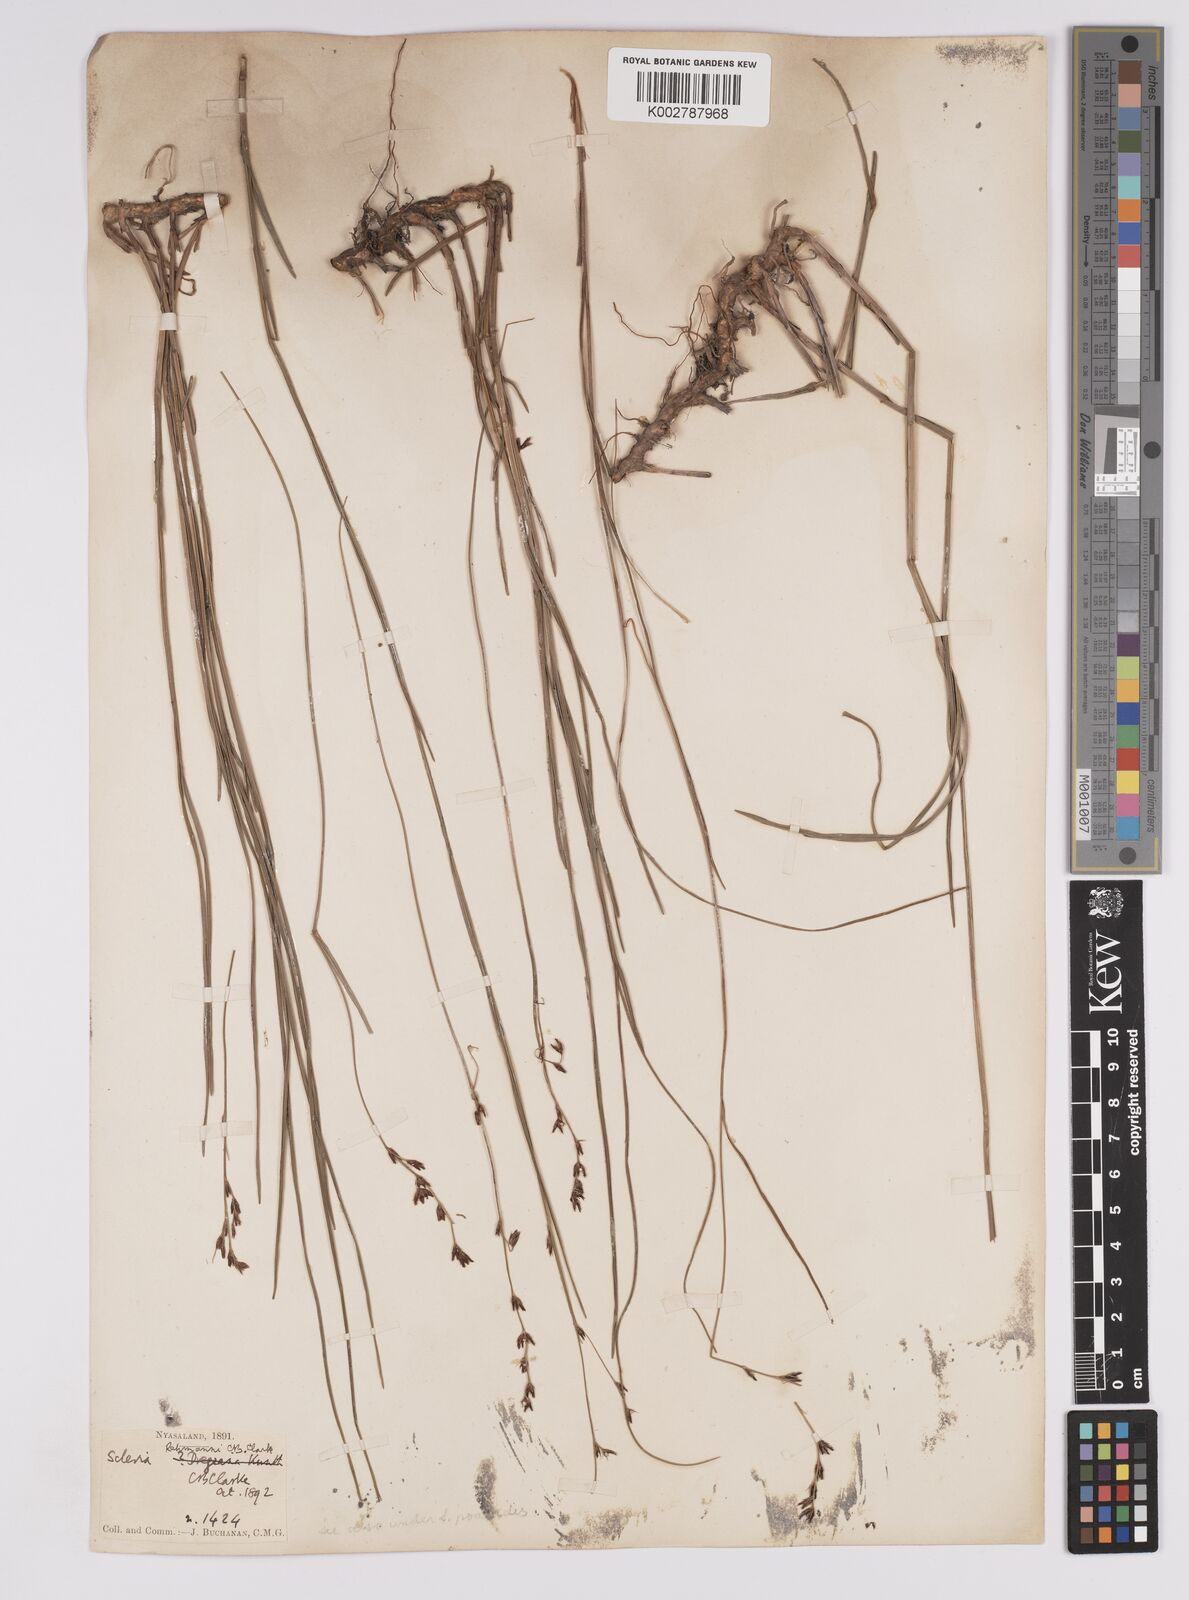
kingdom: Plantae
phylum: Tracheophyta
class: Liliopsida
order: Poales
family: Cyperaceae
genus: Scleria
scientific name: Scleria rehmannii
